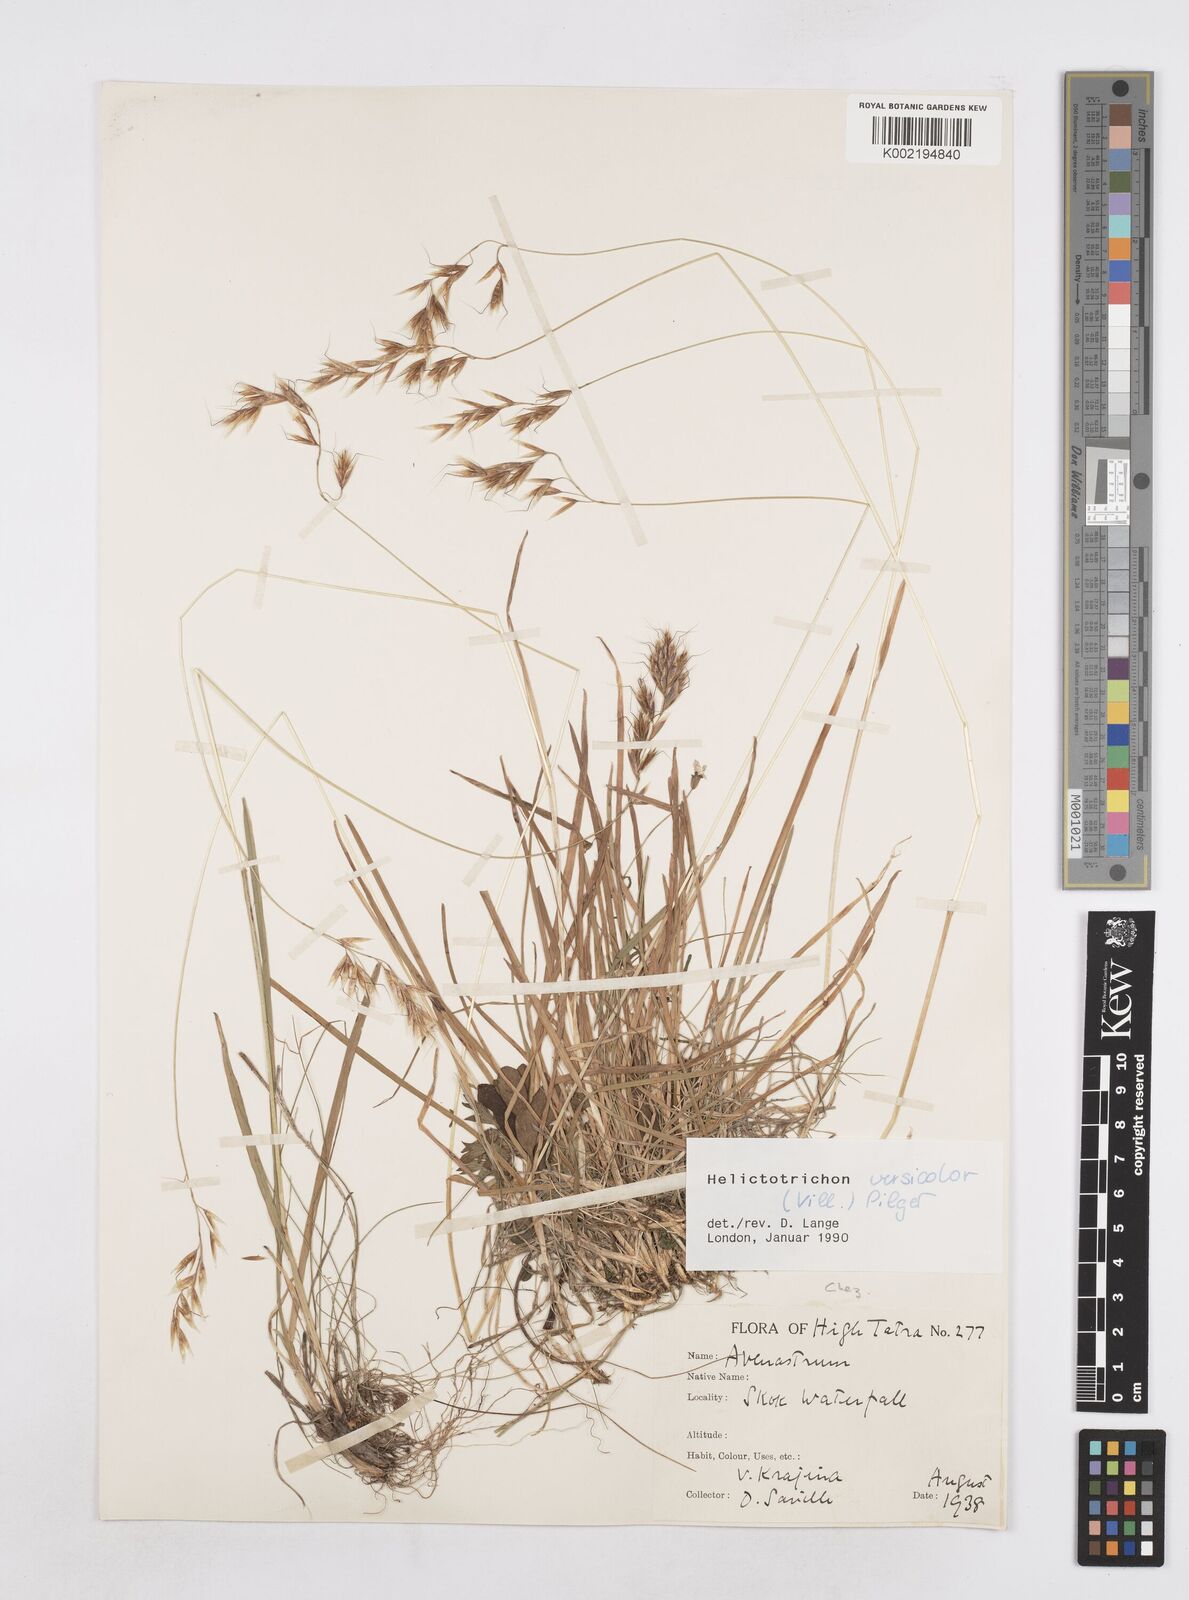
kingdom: Plantae
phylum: Tracheophyta
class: Liliopsida
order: Poales
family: Poaceae
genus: Helictochloa
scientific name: Helictochloa versicolor
